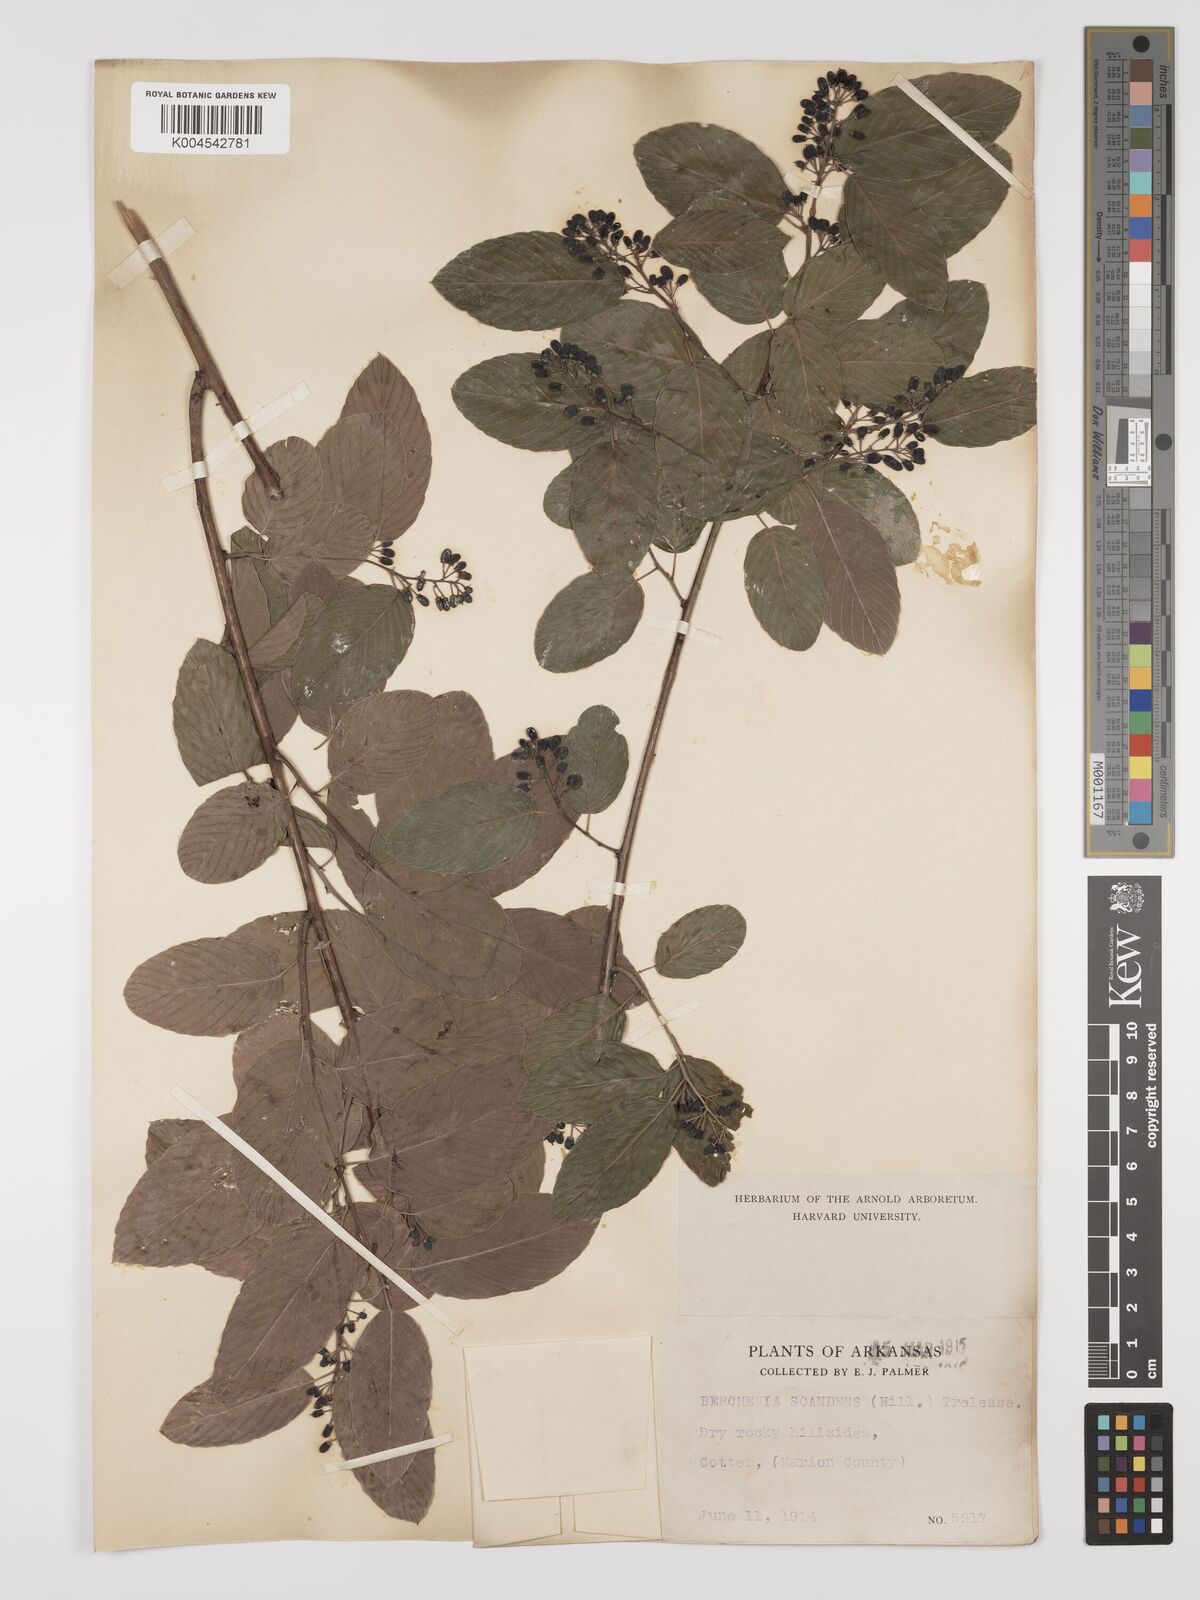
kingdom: Plantae
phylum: Tracheophyta
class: Magnoliopsida
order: Rosales
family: Rhamnaceae
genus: Berchemia
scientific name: Berchemia scandens
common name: Supplejack
